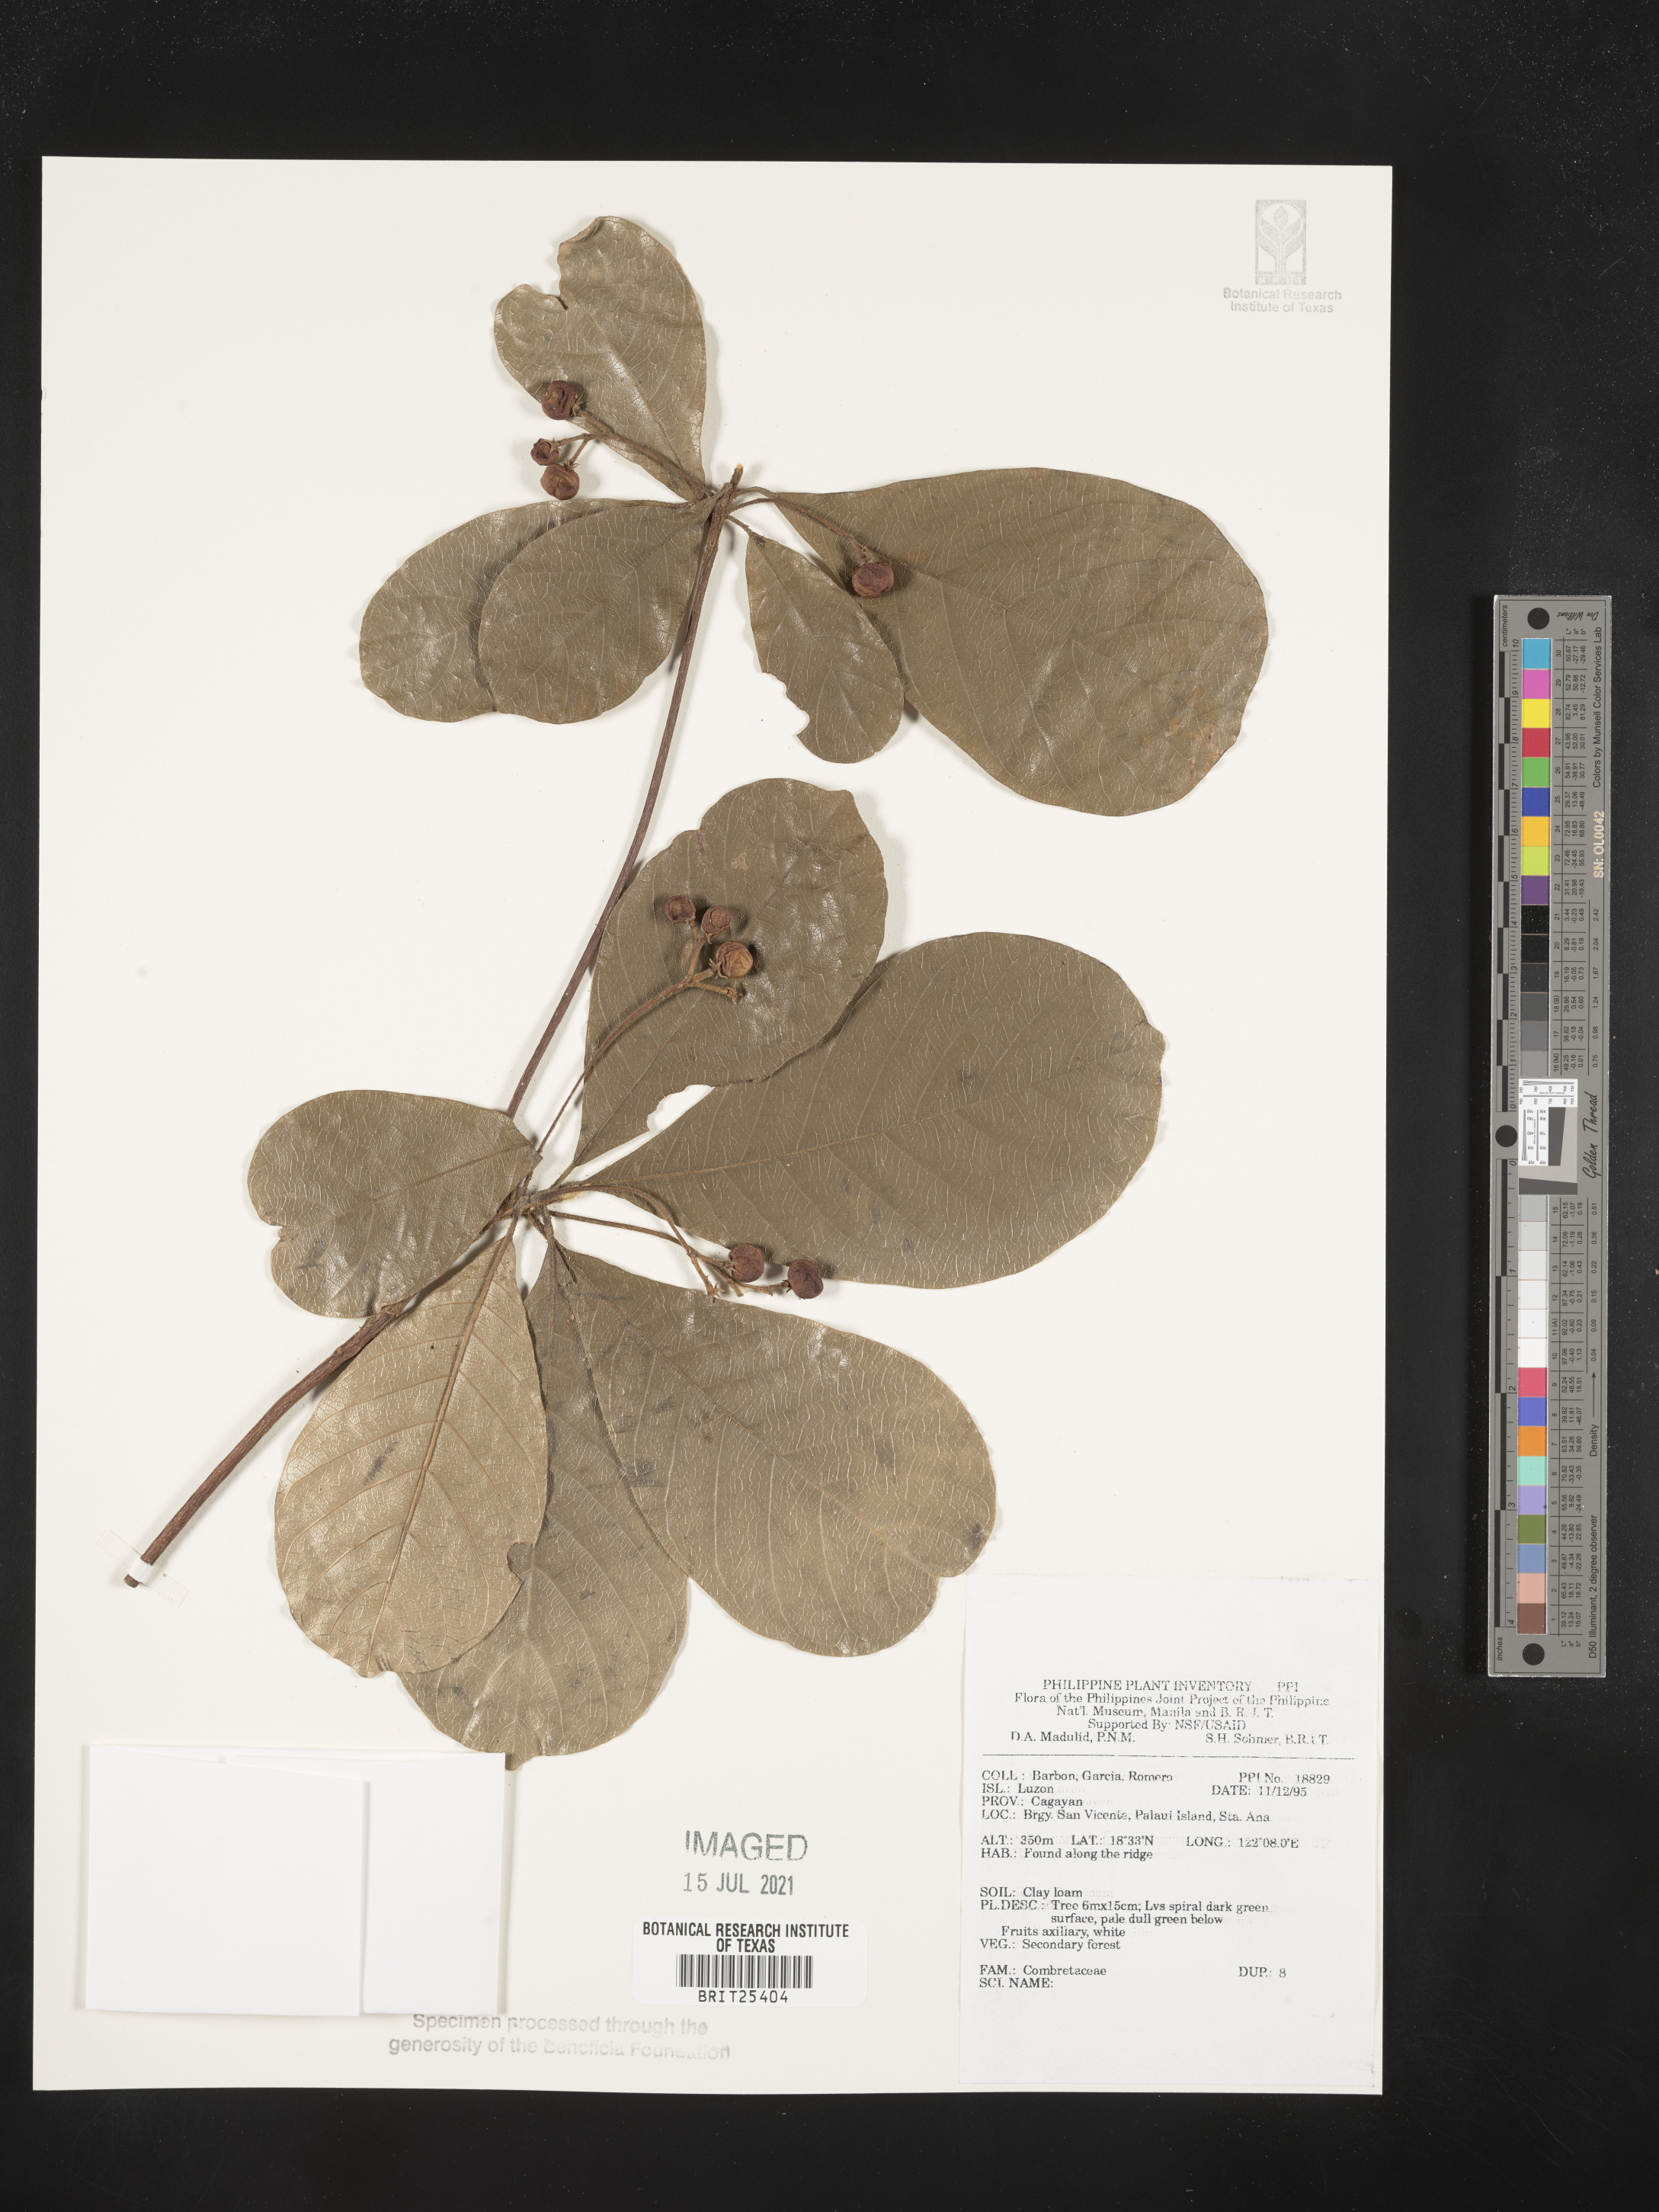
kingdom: Plantae
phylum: Tracheophyta
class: Magnoliopsida
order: Myrtales
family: Combretaceae
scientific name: Combretaceae
